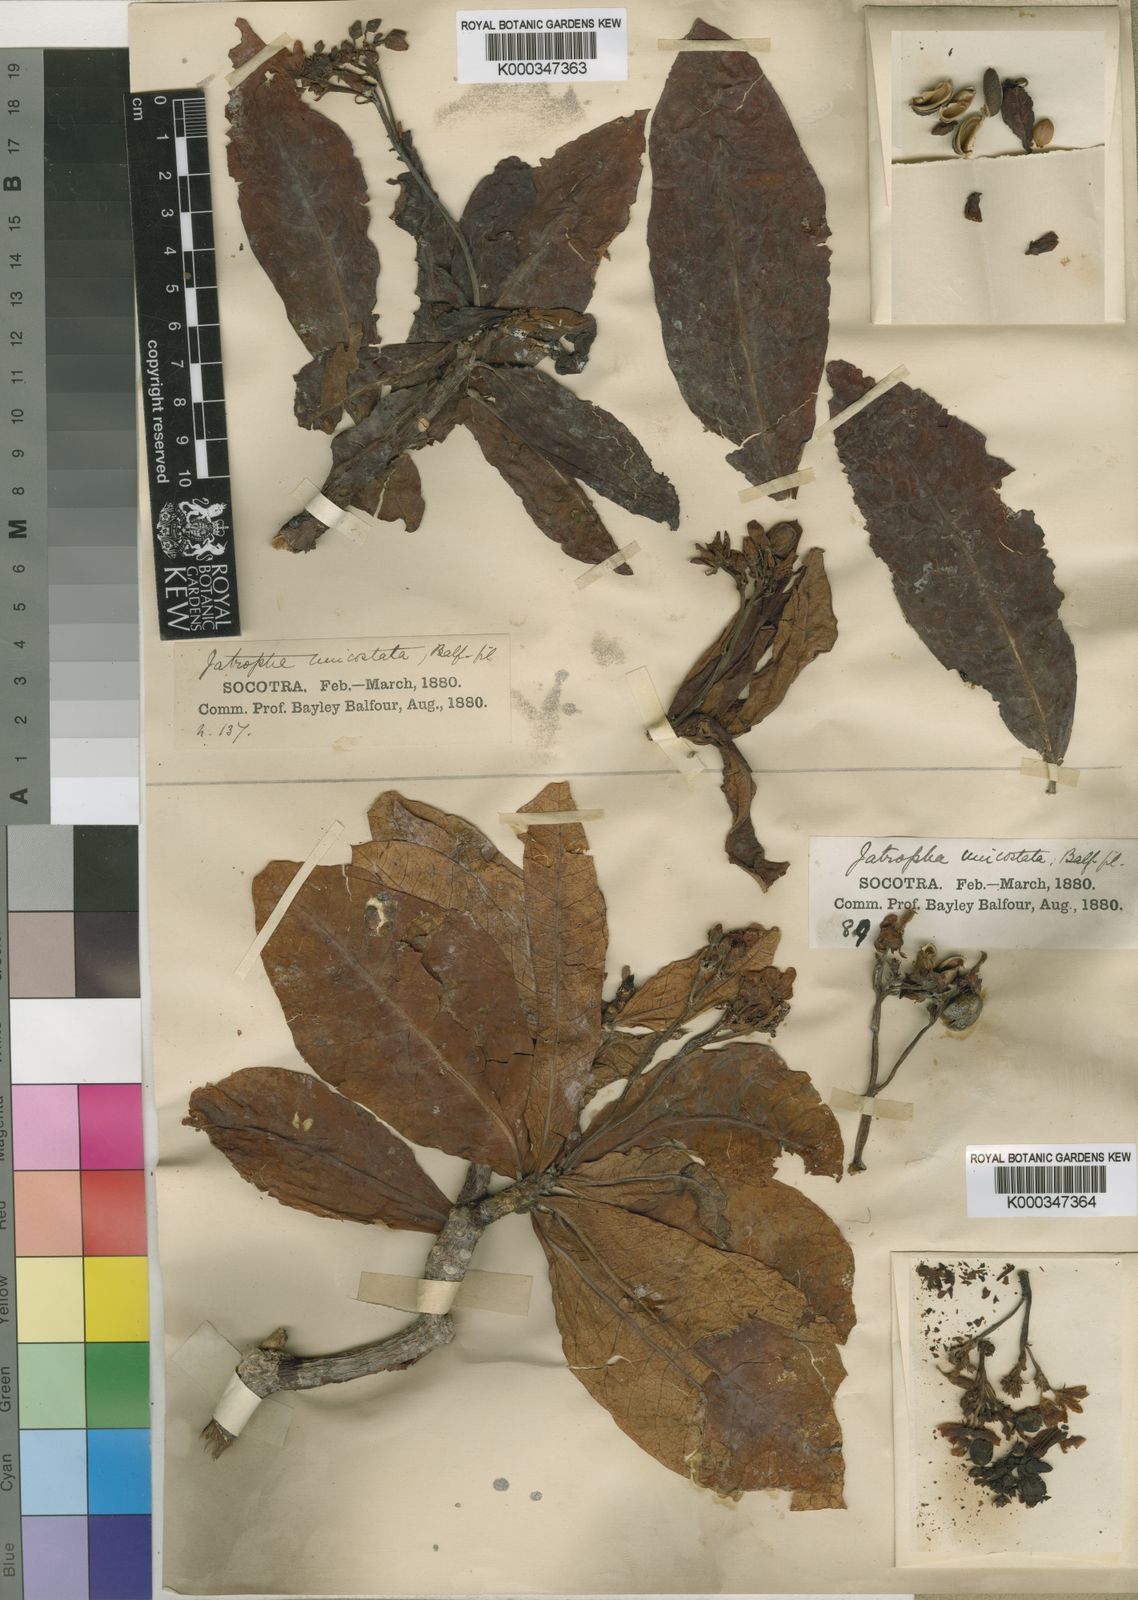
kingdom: Plantae
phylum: Tracheophyta
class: Magnoliopsida
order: Malpighiales
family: Euphorbiaceae
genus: Jatropha
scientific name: Jatropha unicostata
